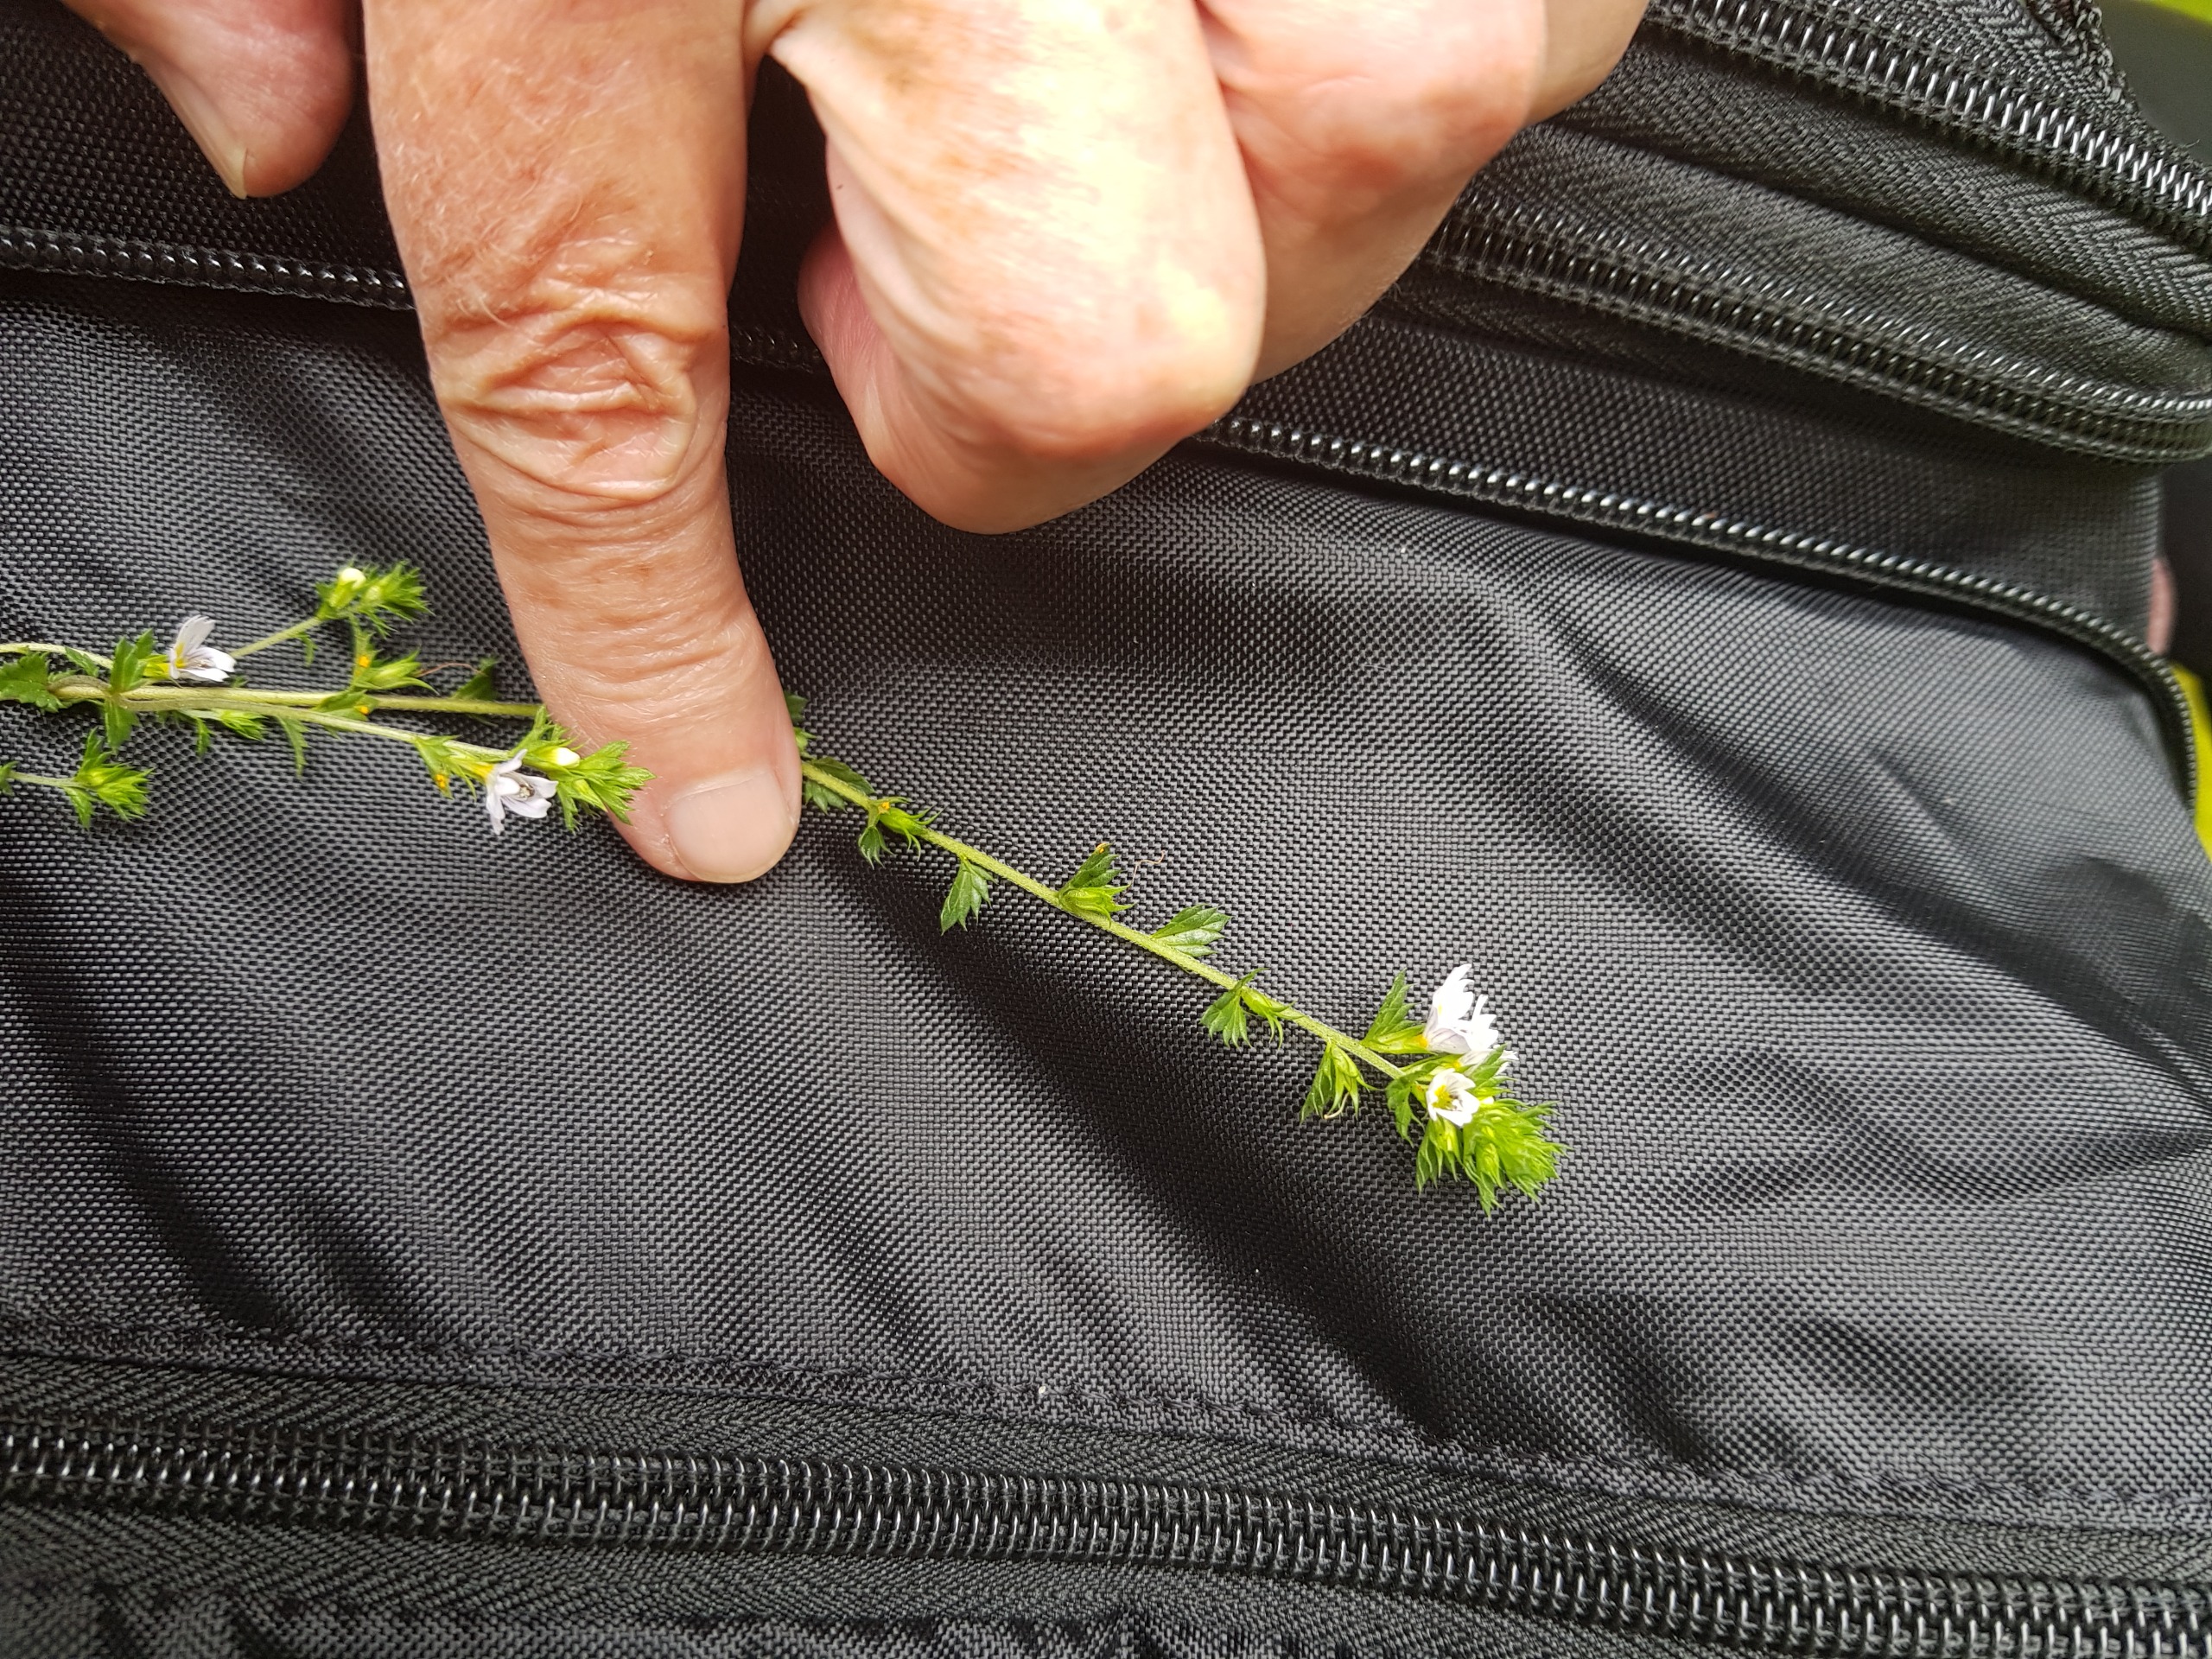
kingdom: Plantae
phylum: Tracheophyta
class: Magnoliopsida
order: Lamiales
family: Orobanchaceae
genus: Euphrasia
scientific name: Euphrasia stricta
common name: Spids øjentrøst
